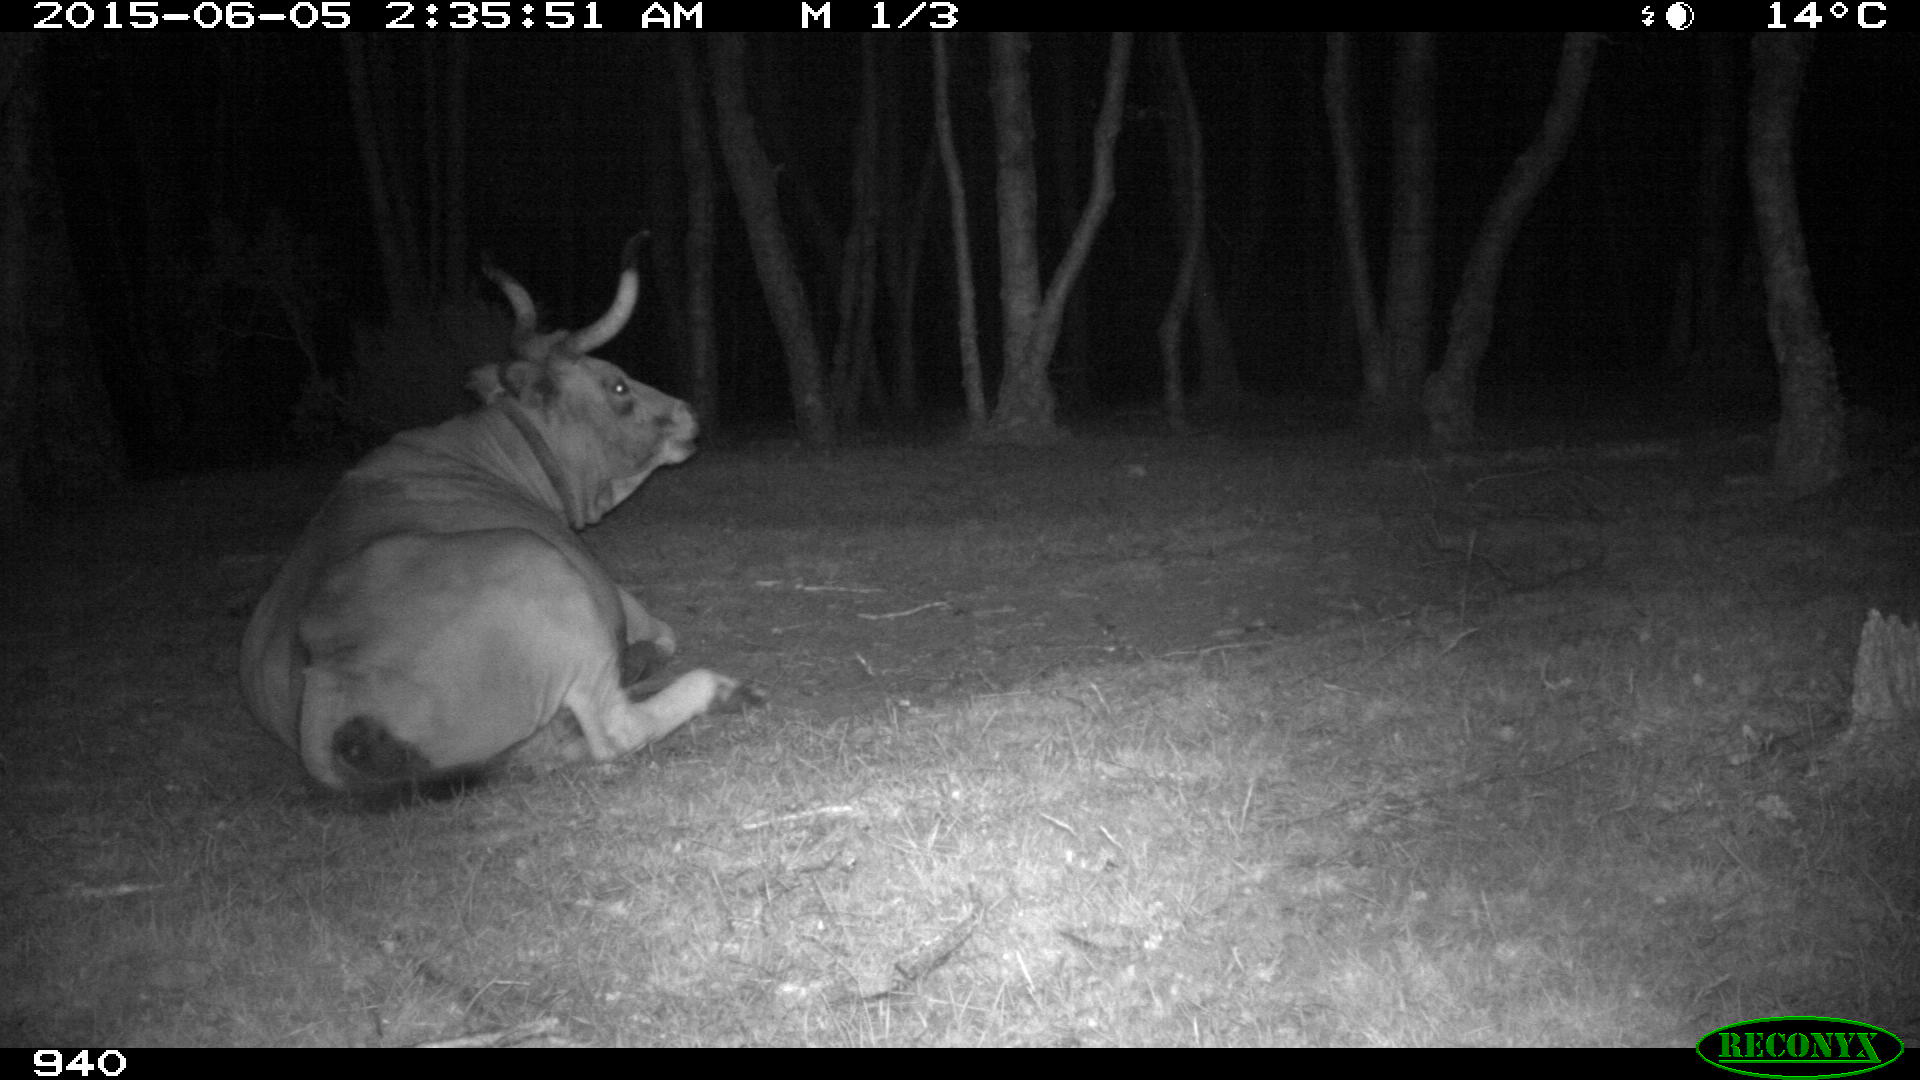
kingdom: Animalia
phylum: Chordata
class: Mammalia
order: Artiodactyla
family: Bovidae
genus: Bos
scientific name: Bos taurus
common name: Domesticated cattle
